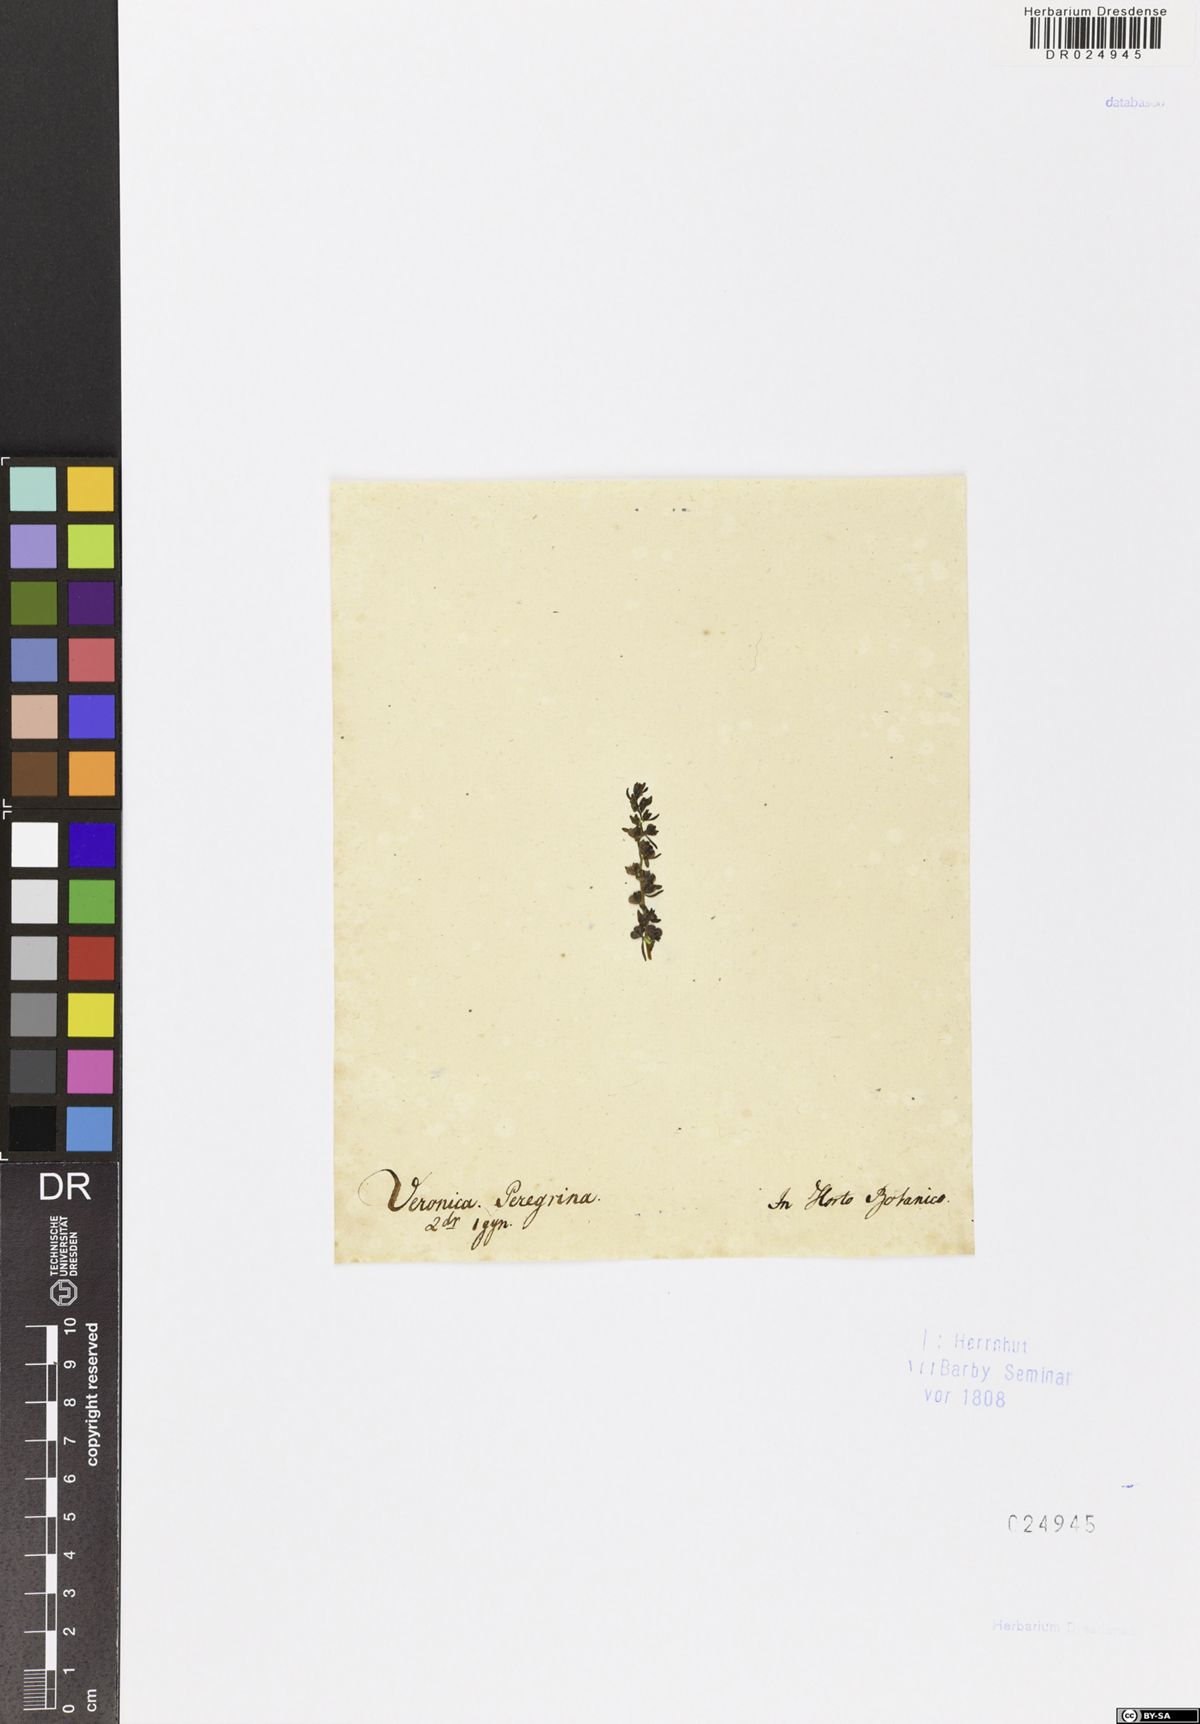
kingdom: Plantae
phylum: Tracheophyta
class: Magnoliopsida
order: Lamiales
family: Plantaginaceae
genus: Veronica
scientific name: Veronica peregrina
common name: Neckweed
